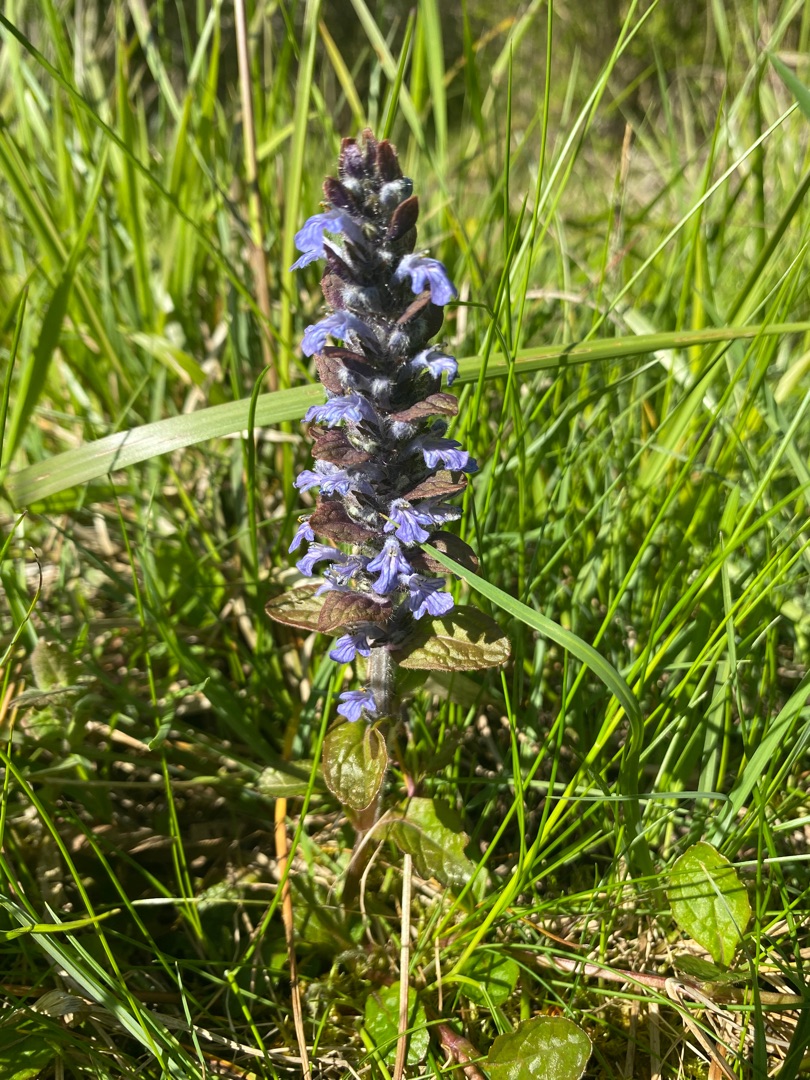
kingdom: Plantae
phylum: Tracheophyta
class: Magnoliopsida
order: Lamiales
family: Lamiaceae
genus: Ajuga
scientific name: Ajuga reptans
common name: Krybende læbeløs
